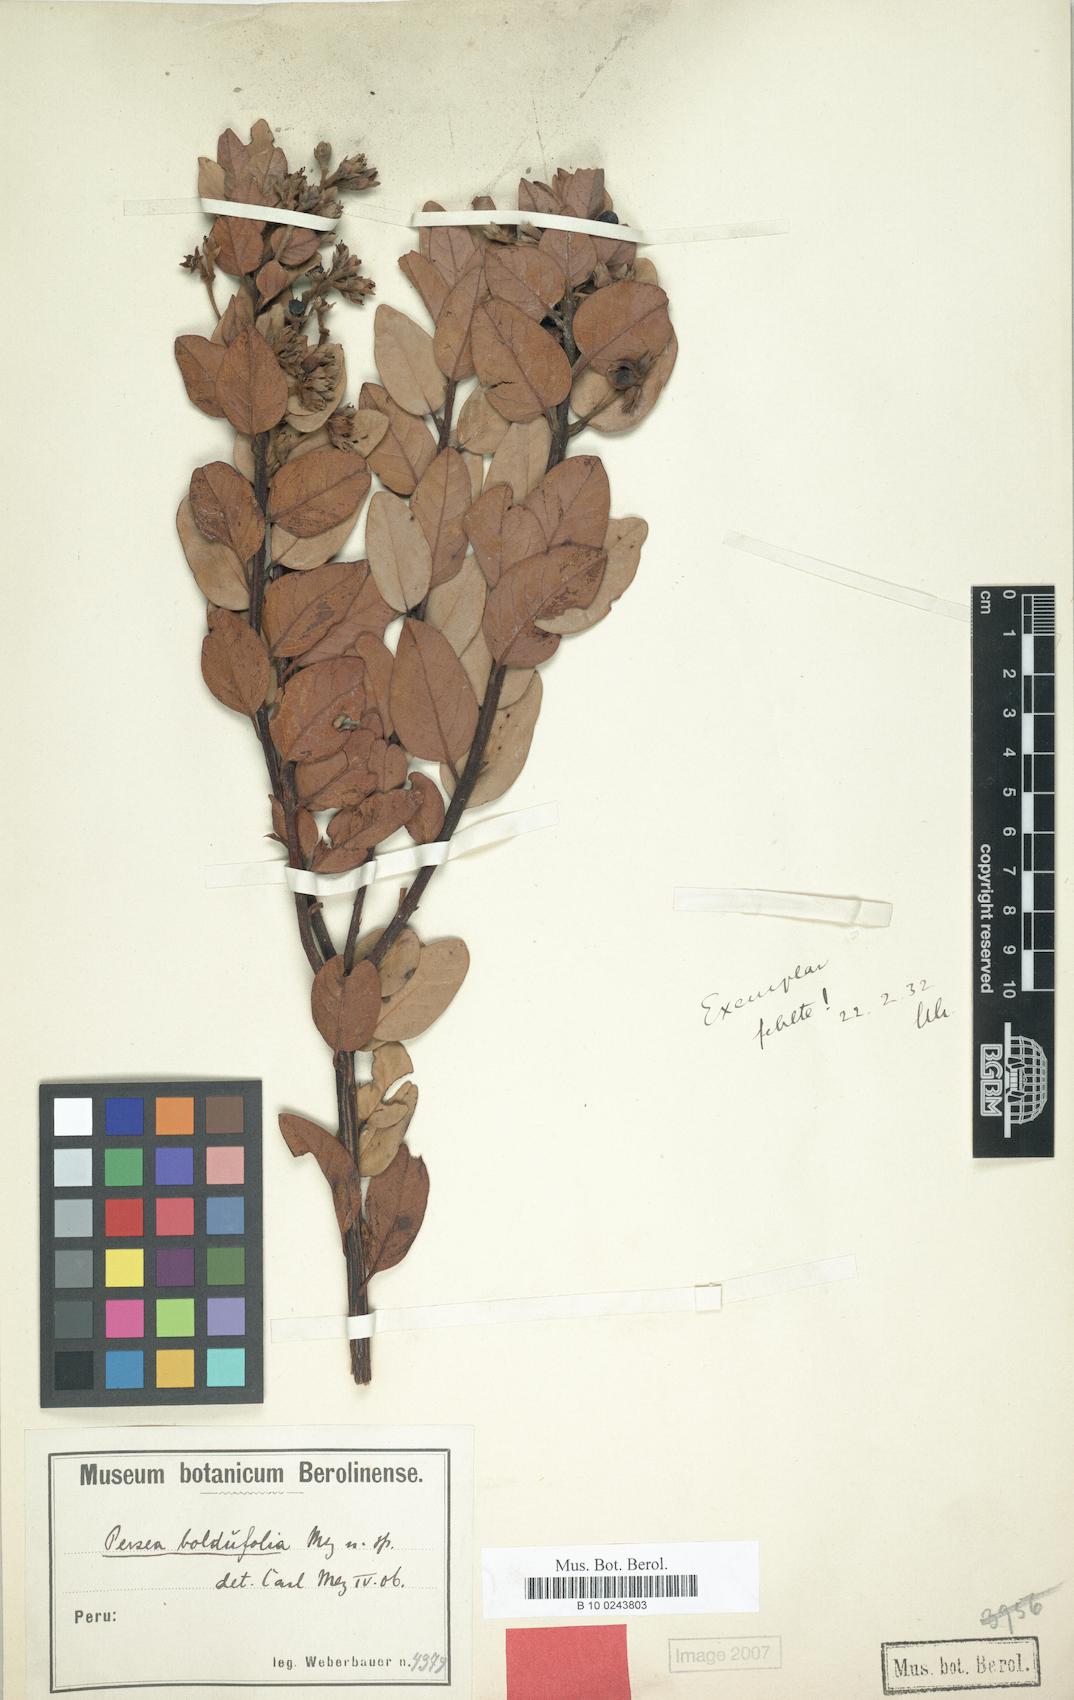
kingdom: Plantae
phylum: Tracheophyta
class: Magnoliopsida
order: Laurales
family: Lauraceae
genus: Persea
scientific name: Persea boldufolia
